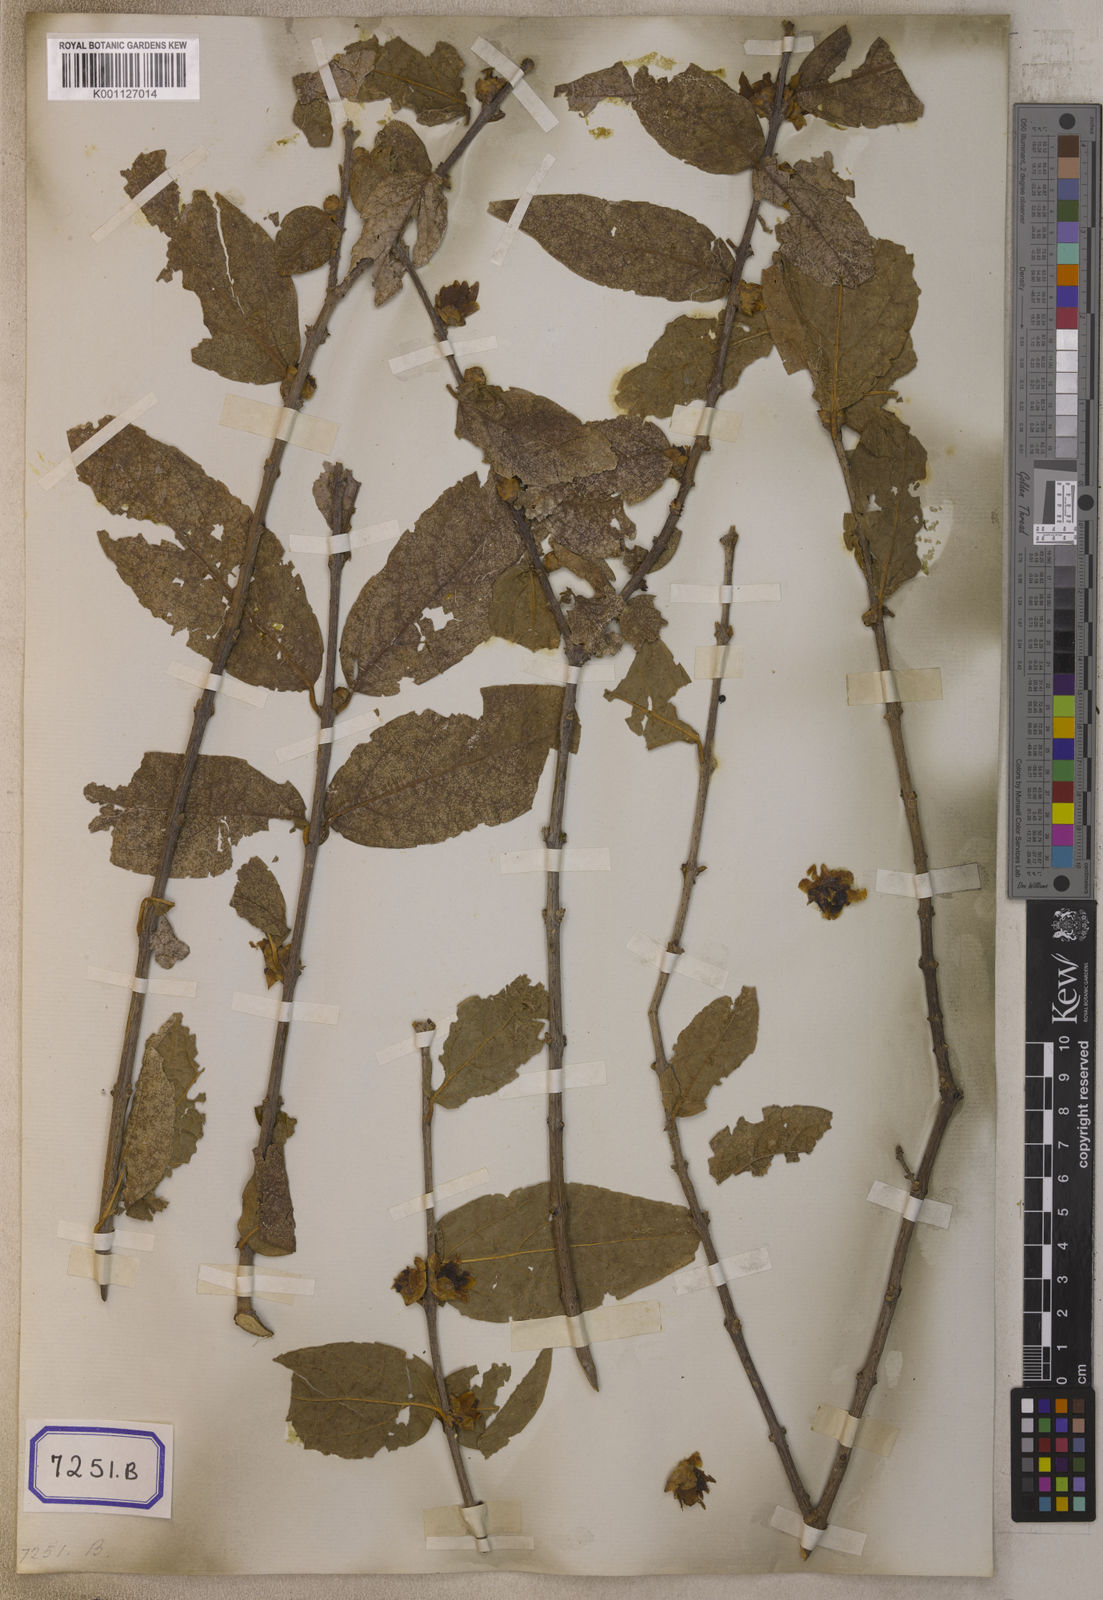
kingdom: Plantae
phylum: Tracheophyta
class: Magnoliopsida
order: Laurales
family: Calycanthaceae
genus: Chimonanthus
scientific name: Chimonanthus praecox
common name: Wintersweet
